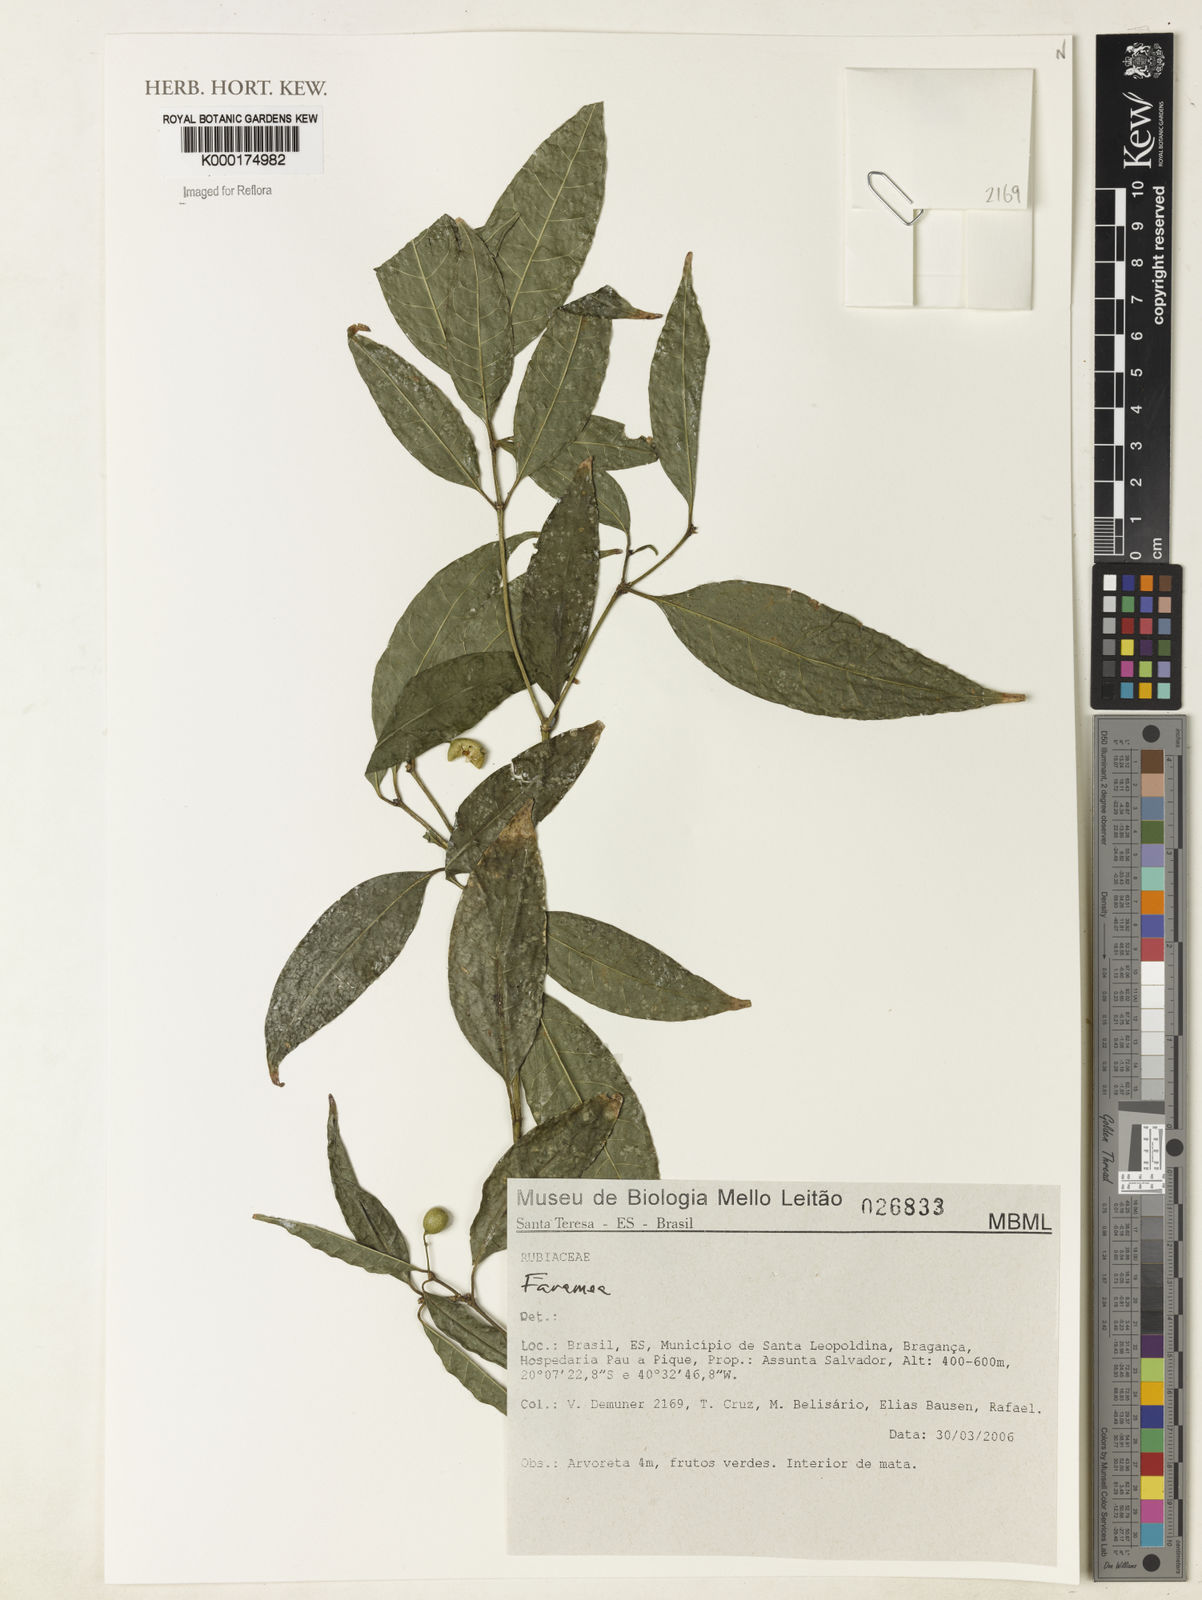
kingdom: Plantae
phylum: Tracheophyta
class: Magnoliopsida
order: Gentianales
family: Rubiaceae
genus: Faramea
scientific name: Faramea
